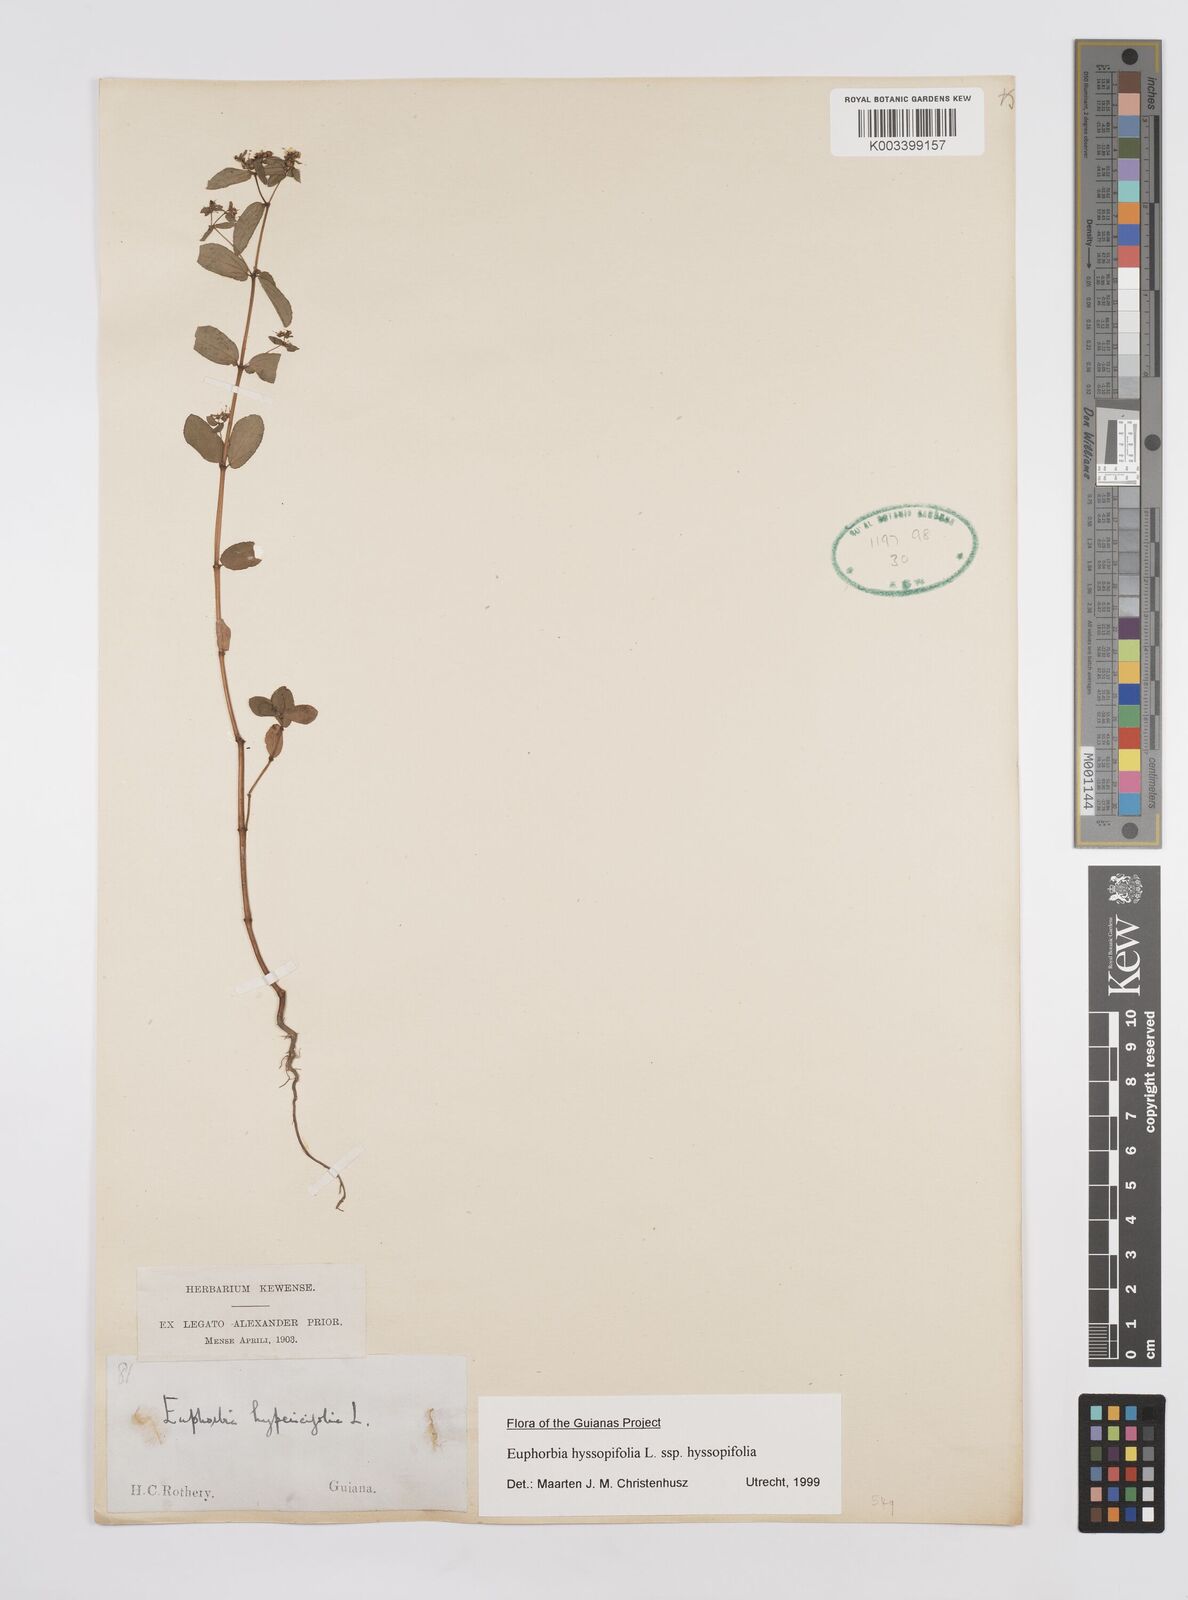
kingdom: Plantae
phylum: Tracheophyta
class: Magnoliopsida
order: Malpighiales
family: Euphorbiaceae
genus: Euphorbia
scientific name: Euphorbia hyssopifolia
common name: Hyssopleaf sandmat
